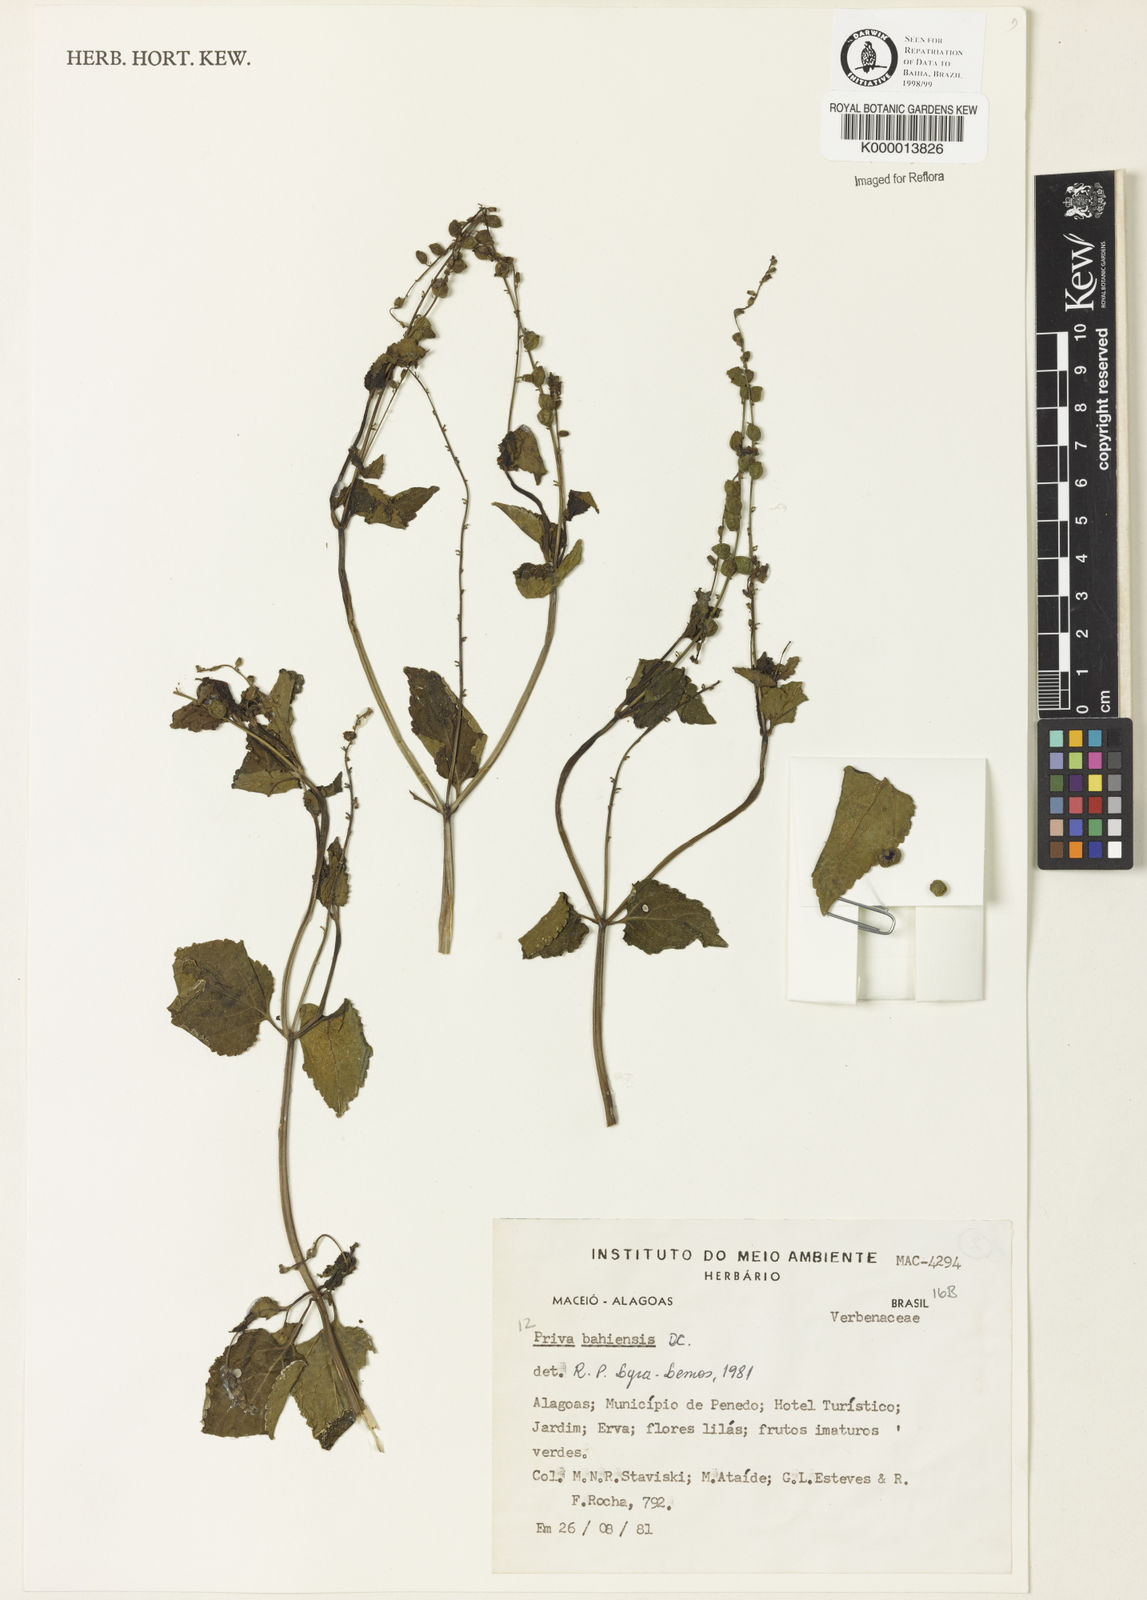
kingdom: Plantae
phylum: Tracheophyta
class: Magnoliopsida
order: Lamiales
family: Verbenaceae
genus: Priva
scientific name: Priva
